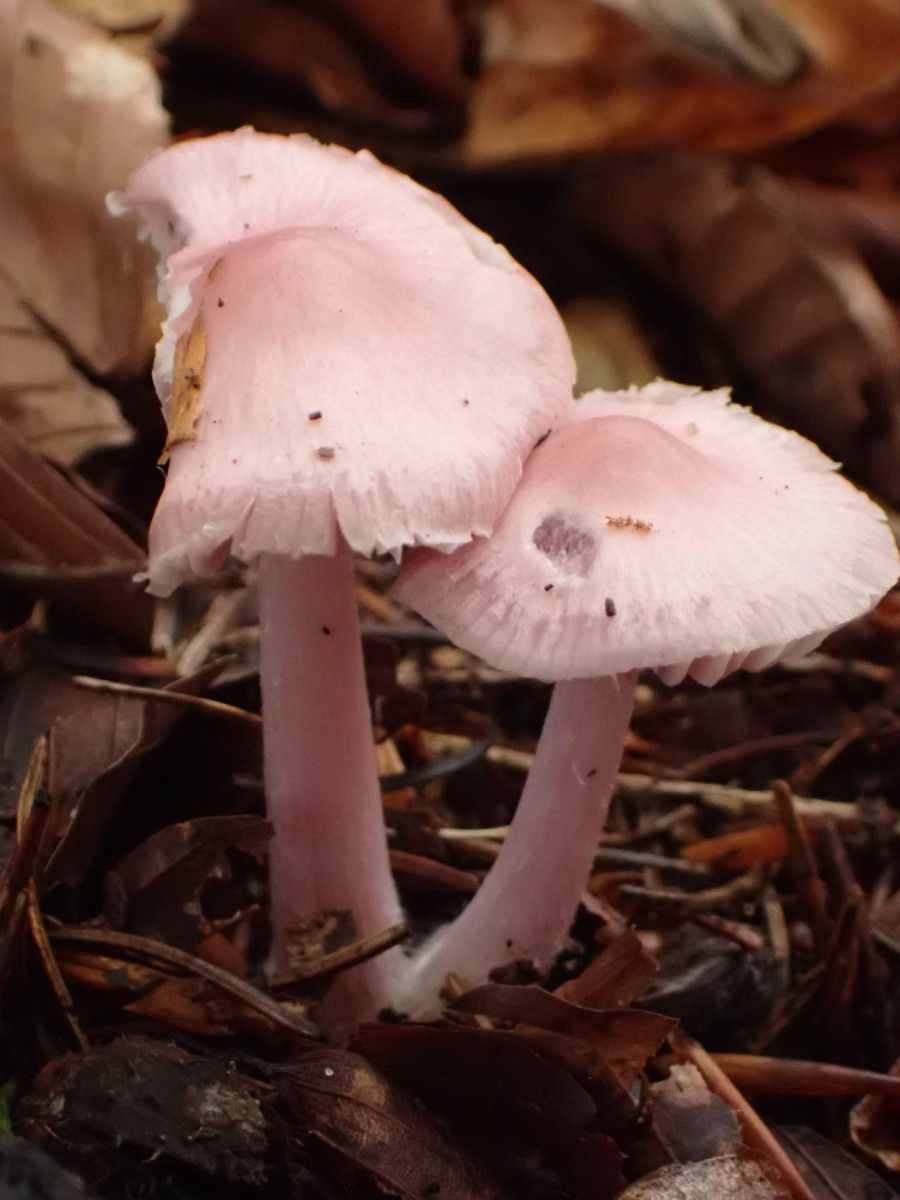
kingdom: Fungi
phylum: Basidiomycota
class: Agaricomycetes
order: Agaricales
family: Mycenaceae
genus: Mycena
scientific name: Mycena rosea
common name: rosa huesvamp
